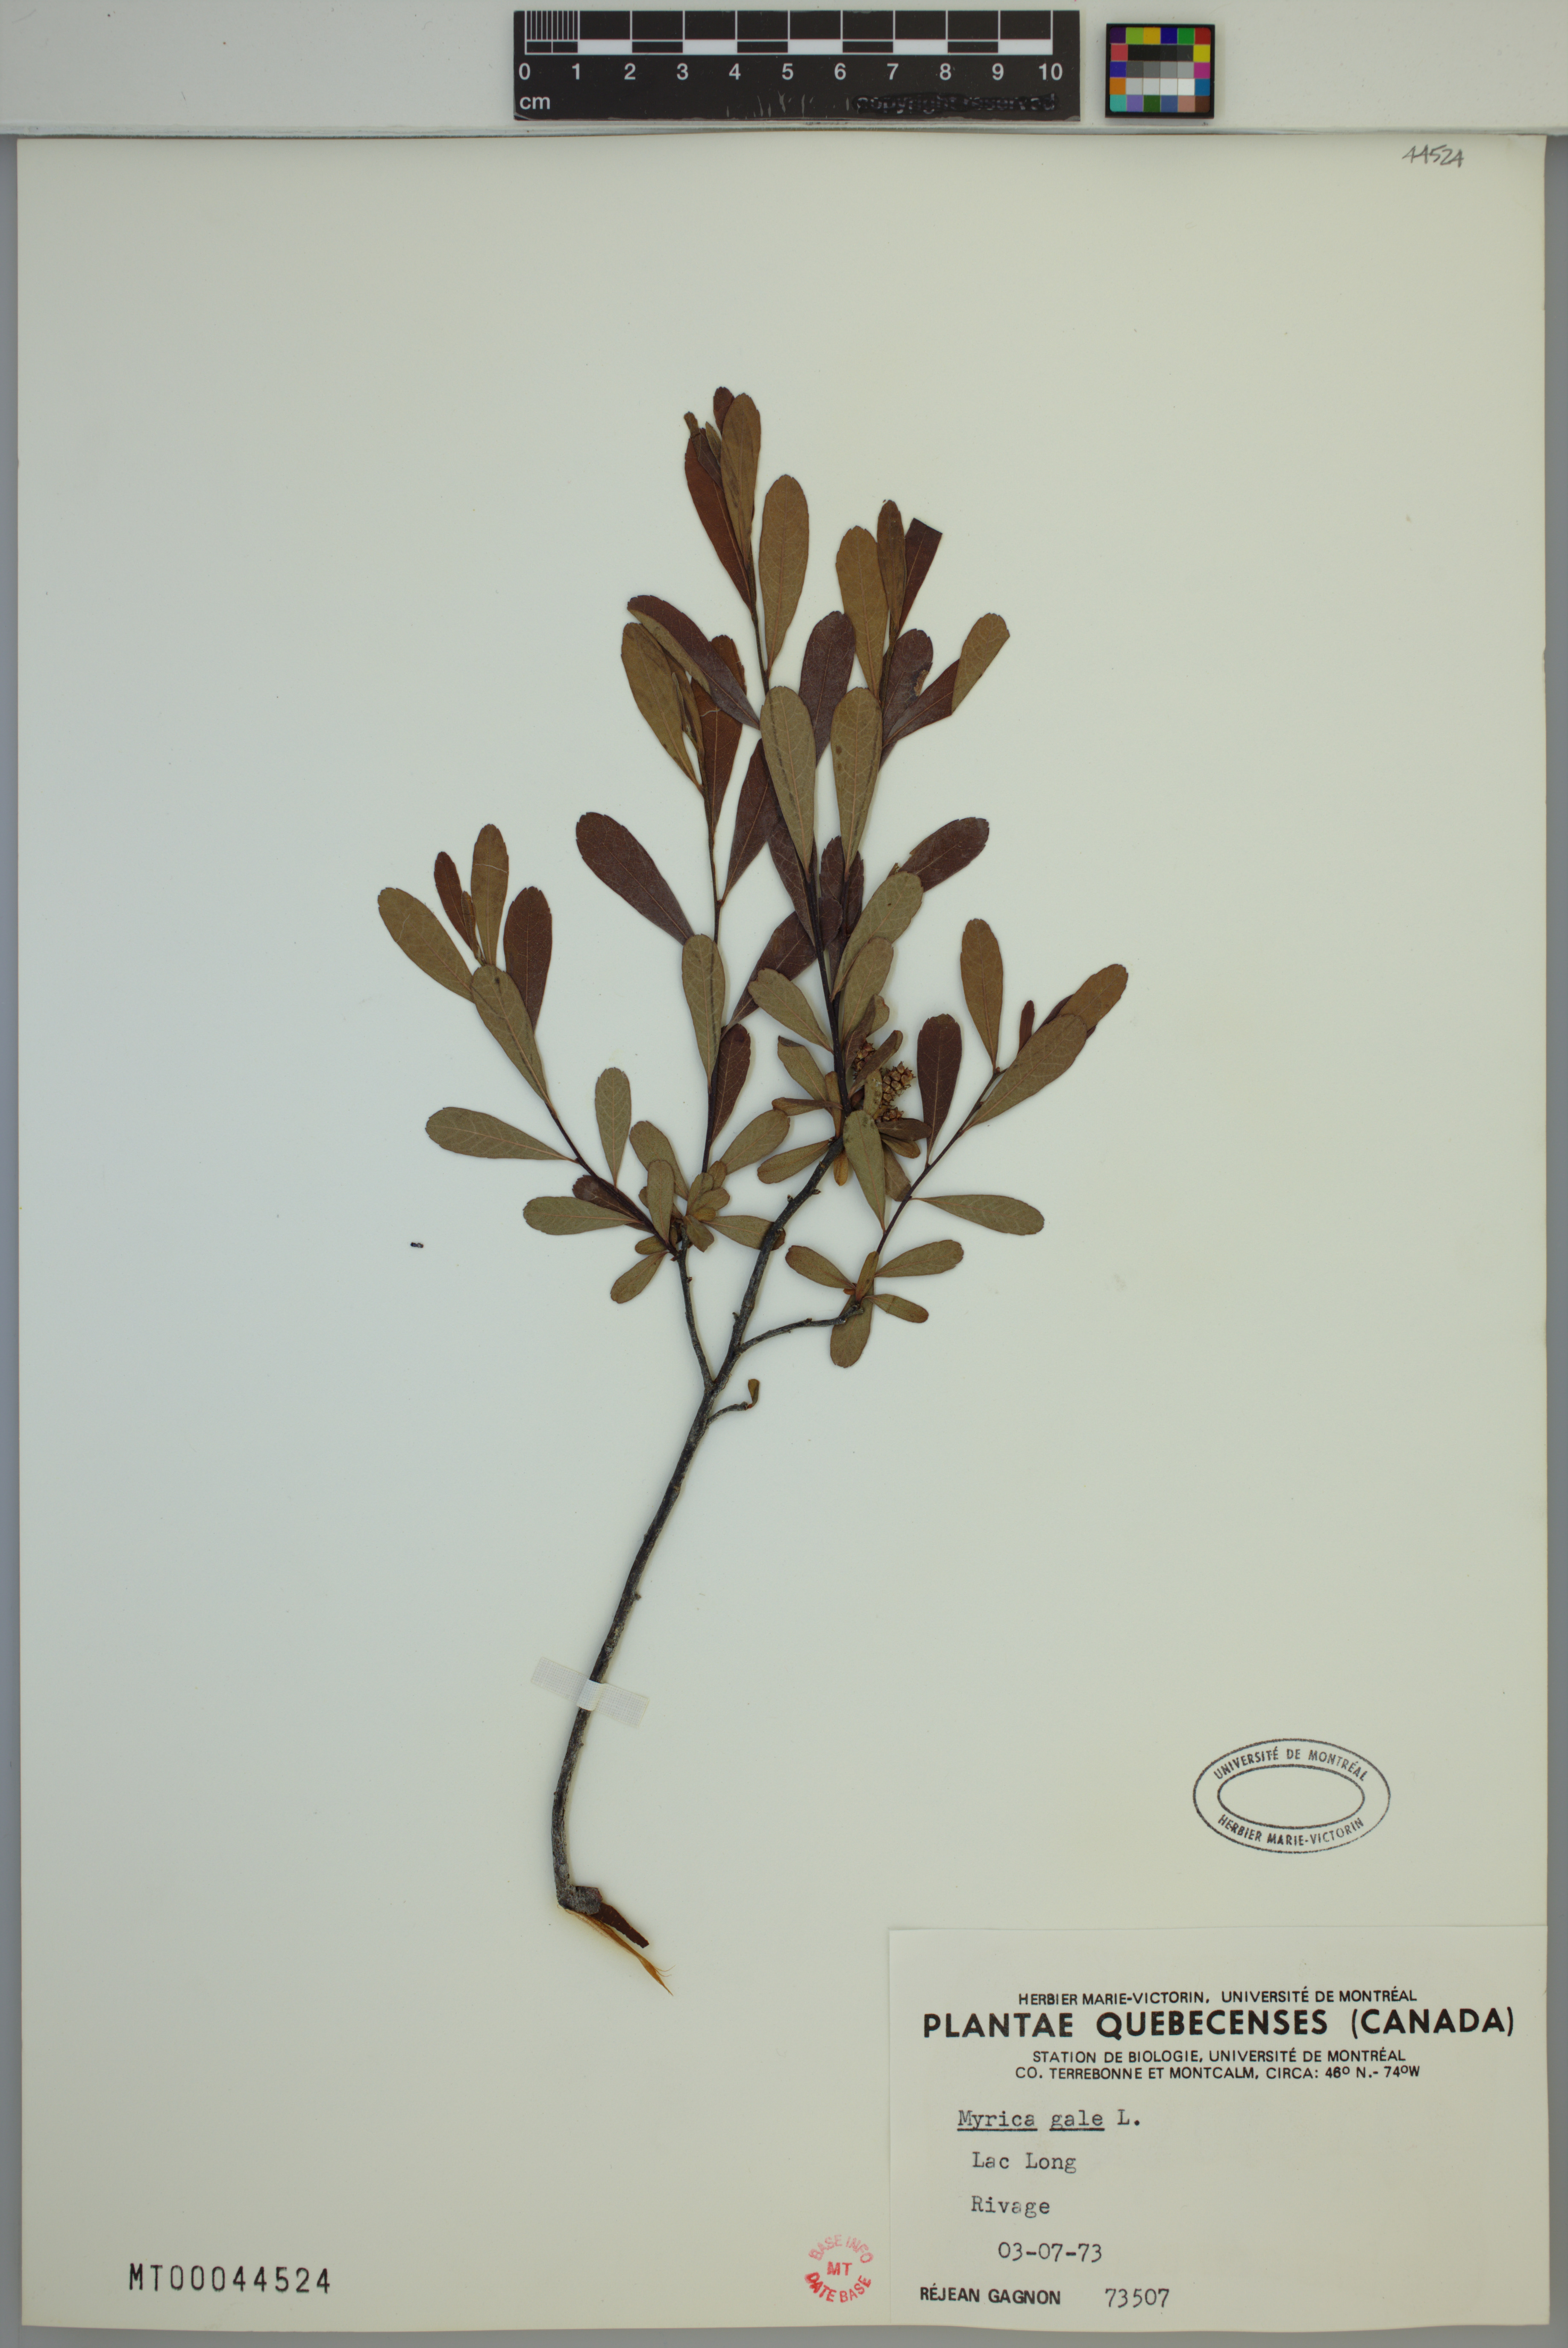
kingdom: Plantae
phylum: Tracheophyta
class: Magnoliopsida
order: Fagales
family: Myricaceae
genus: Myrica
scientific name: Myrica gale
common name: Sweet gale
